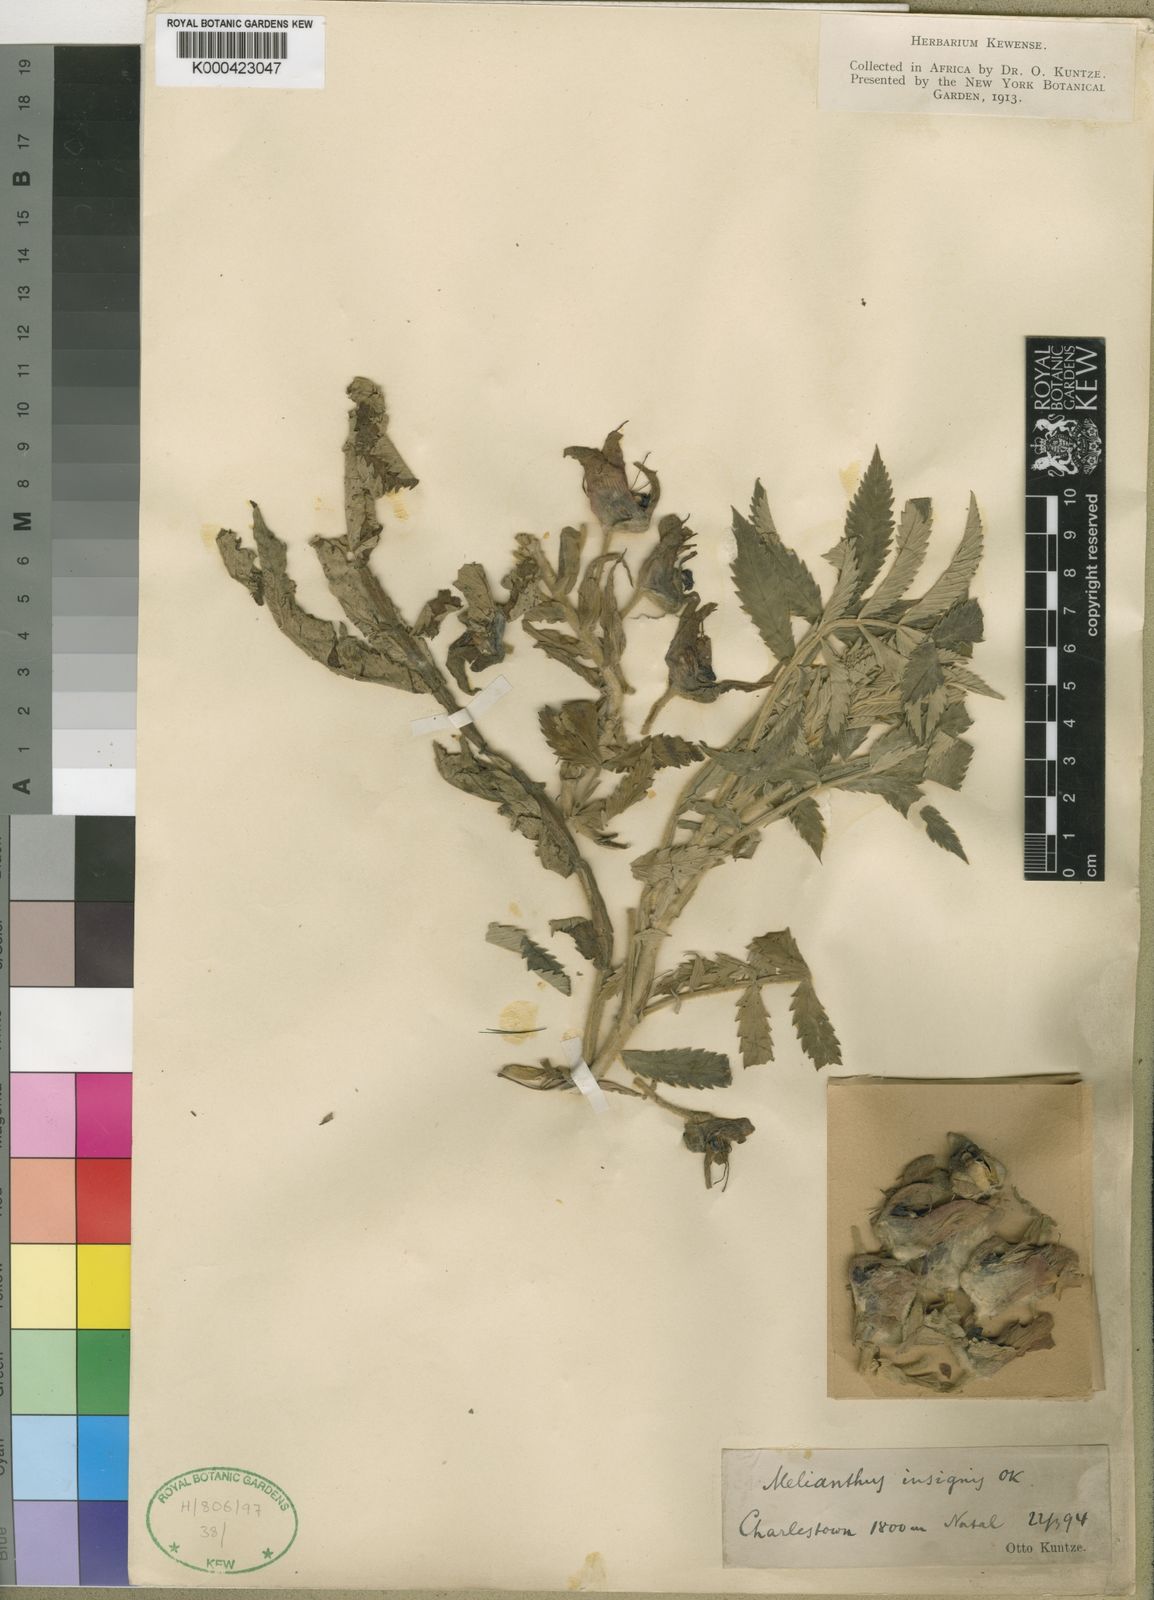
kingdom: Plantae
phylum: Tracheophyta
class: Magnoliopsida
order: Geraniales
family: Melianthaceae
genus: Melianthus
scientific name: Melianthus dregeanus
